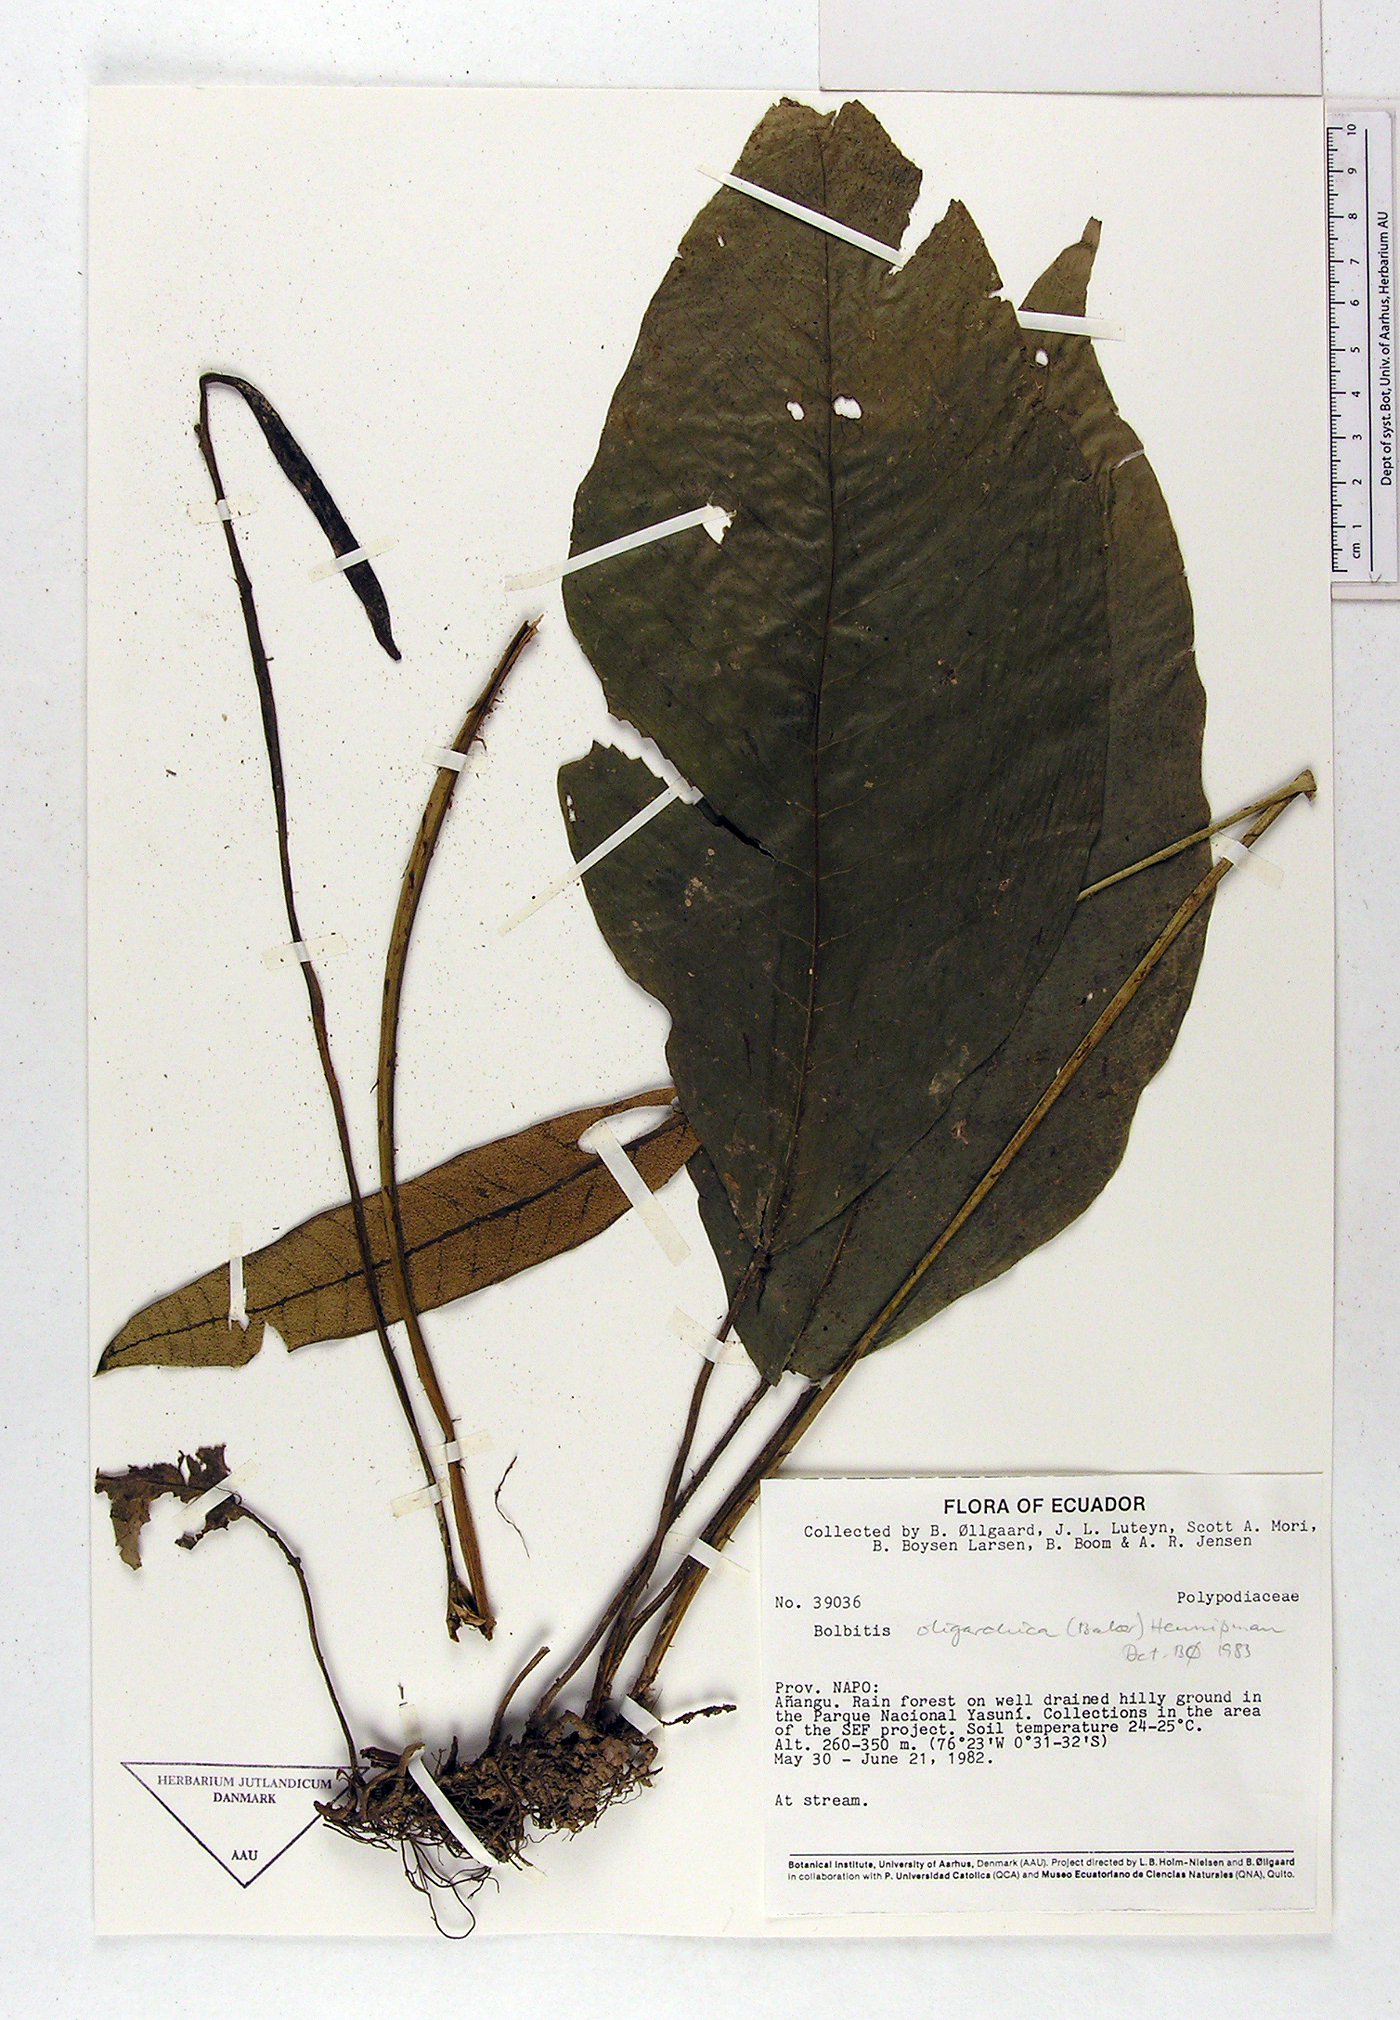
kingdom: Plantae
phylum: Tracheophyta
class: Polypodiopsida
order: Polypodiales
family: Dryopteridaceae
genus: Mickelia
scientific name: Mickelia oligarchica
